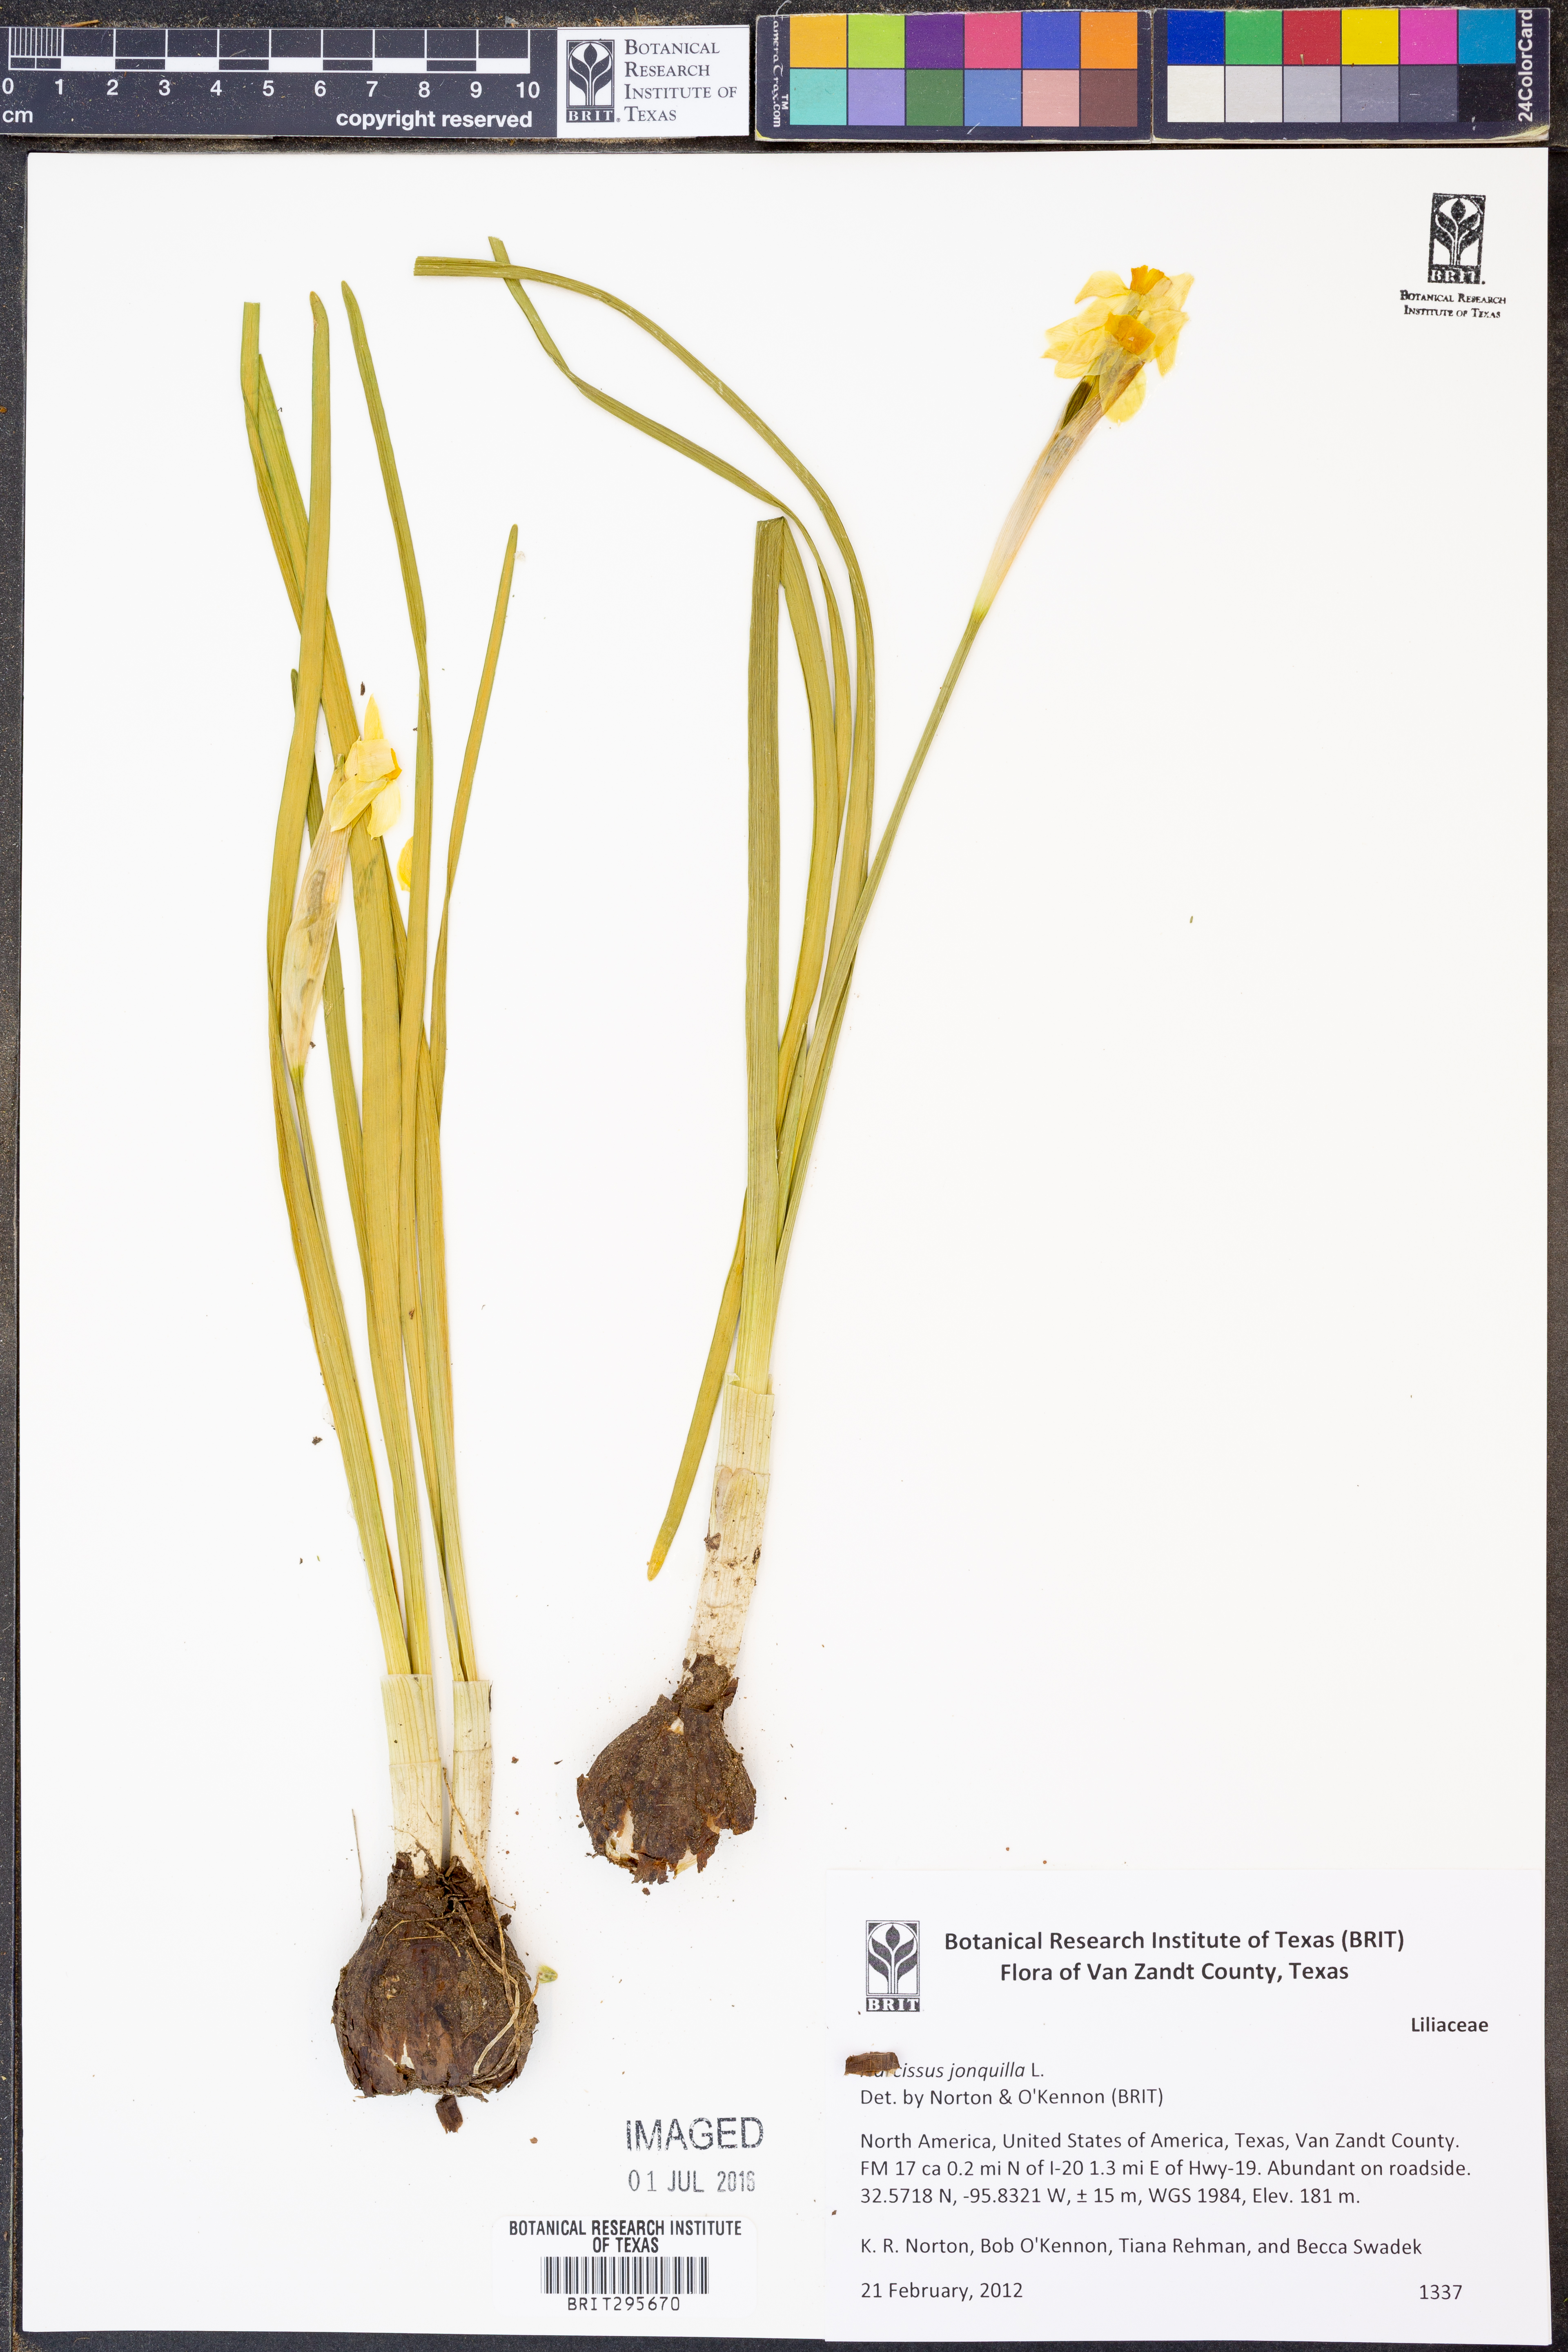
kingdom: Plantae
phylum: Tracheophyta
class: Liliopsida
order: Asparagales
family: Amaryllidaceae
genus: Narcissus
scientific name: Narcissus jonquilla
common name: Jonquil
